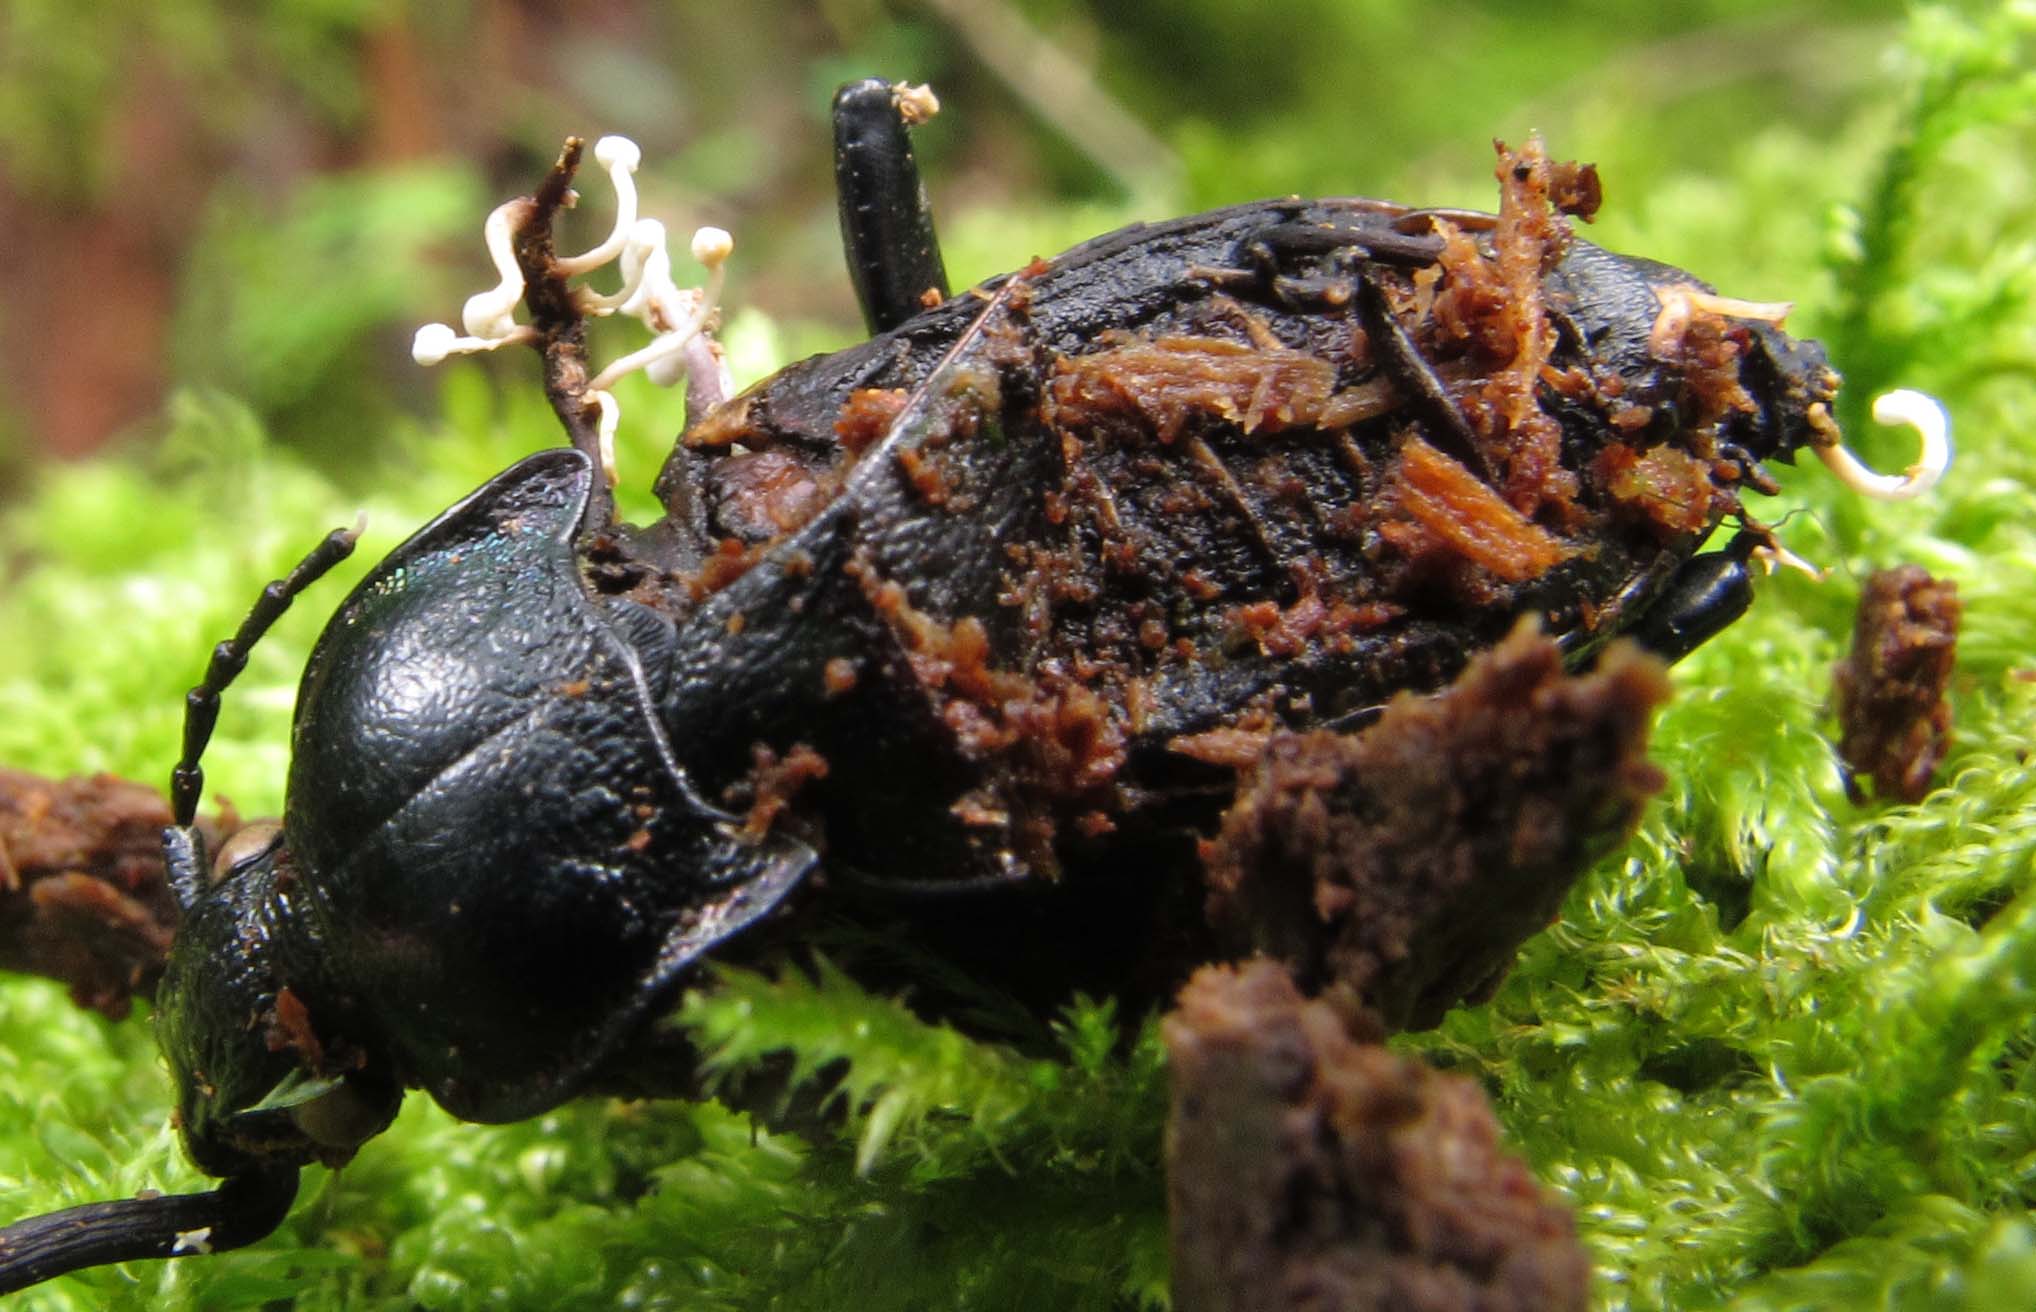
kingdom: Fungi
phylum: Ascomycota
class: Sordariomycetes
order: Hypocreales
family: Ophiocordycipitaceae
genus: Polycephalomyces
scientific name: Polycephalomyces ramosus
